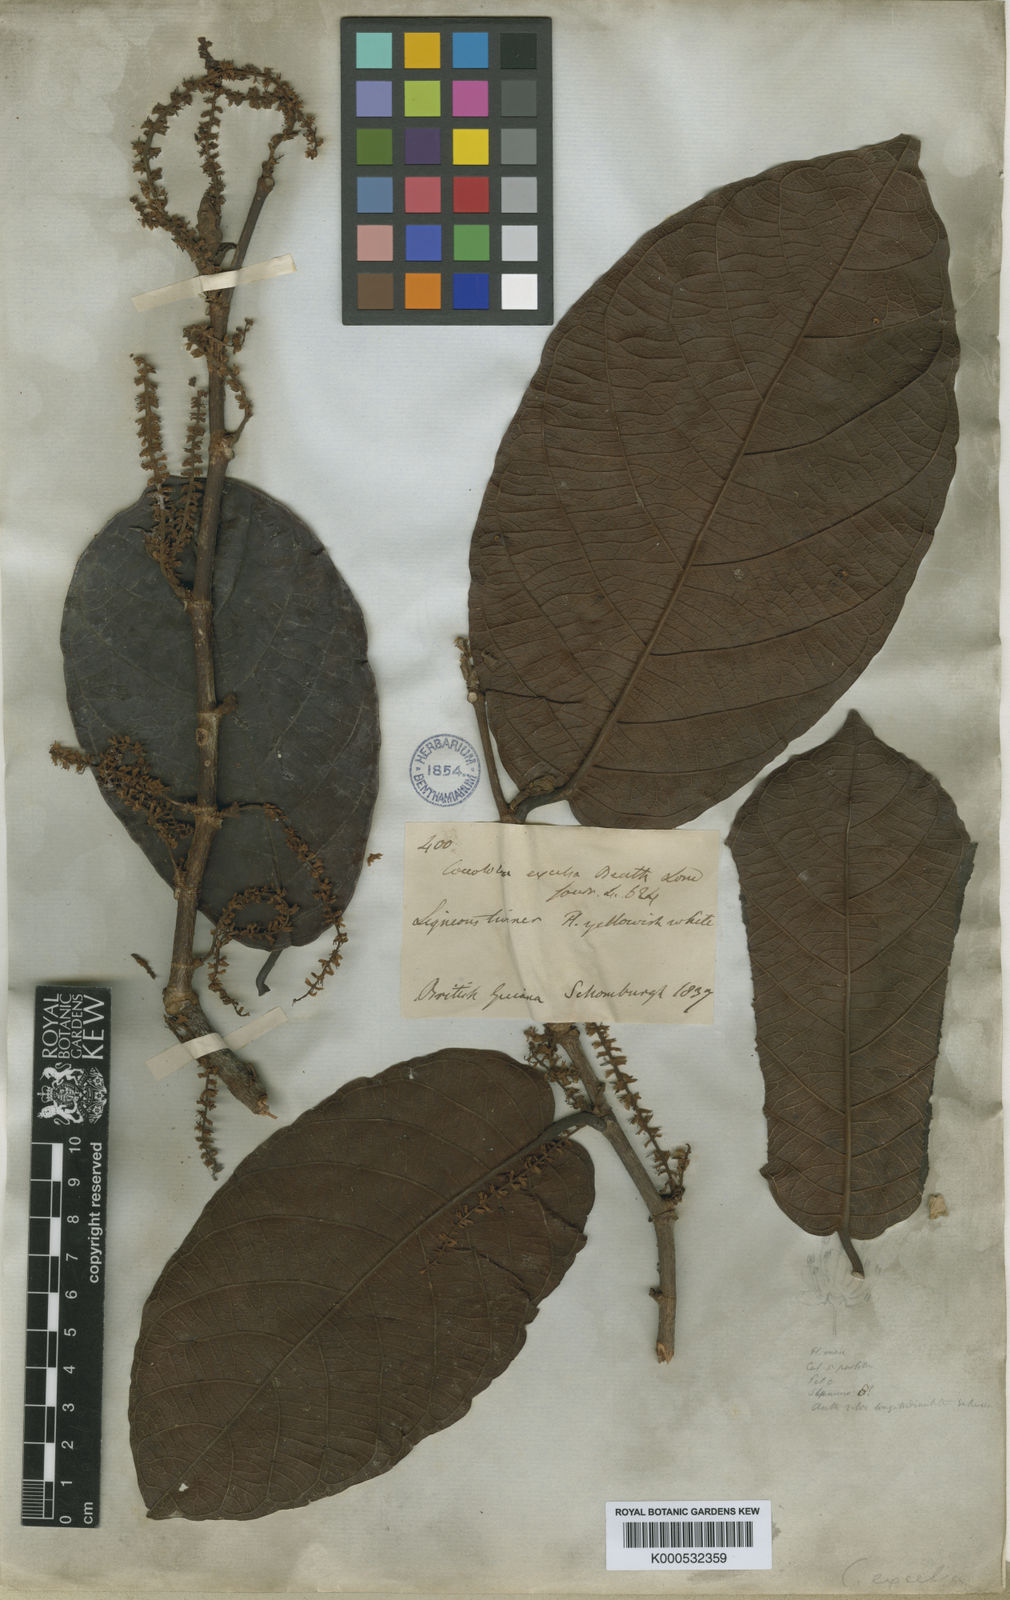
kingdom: Plantae
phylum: Tracheophyta
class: Magnoliopsida
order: Caryophyllales
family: Polygonaceae
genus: Coccoloba
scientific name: Coccoloba excelsa
